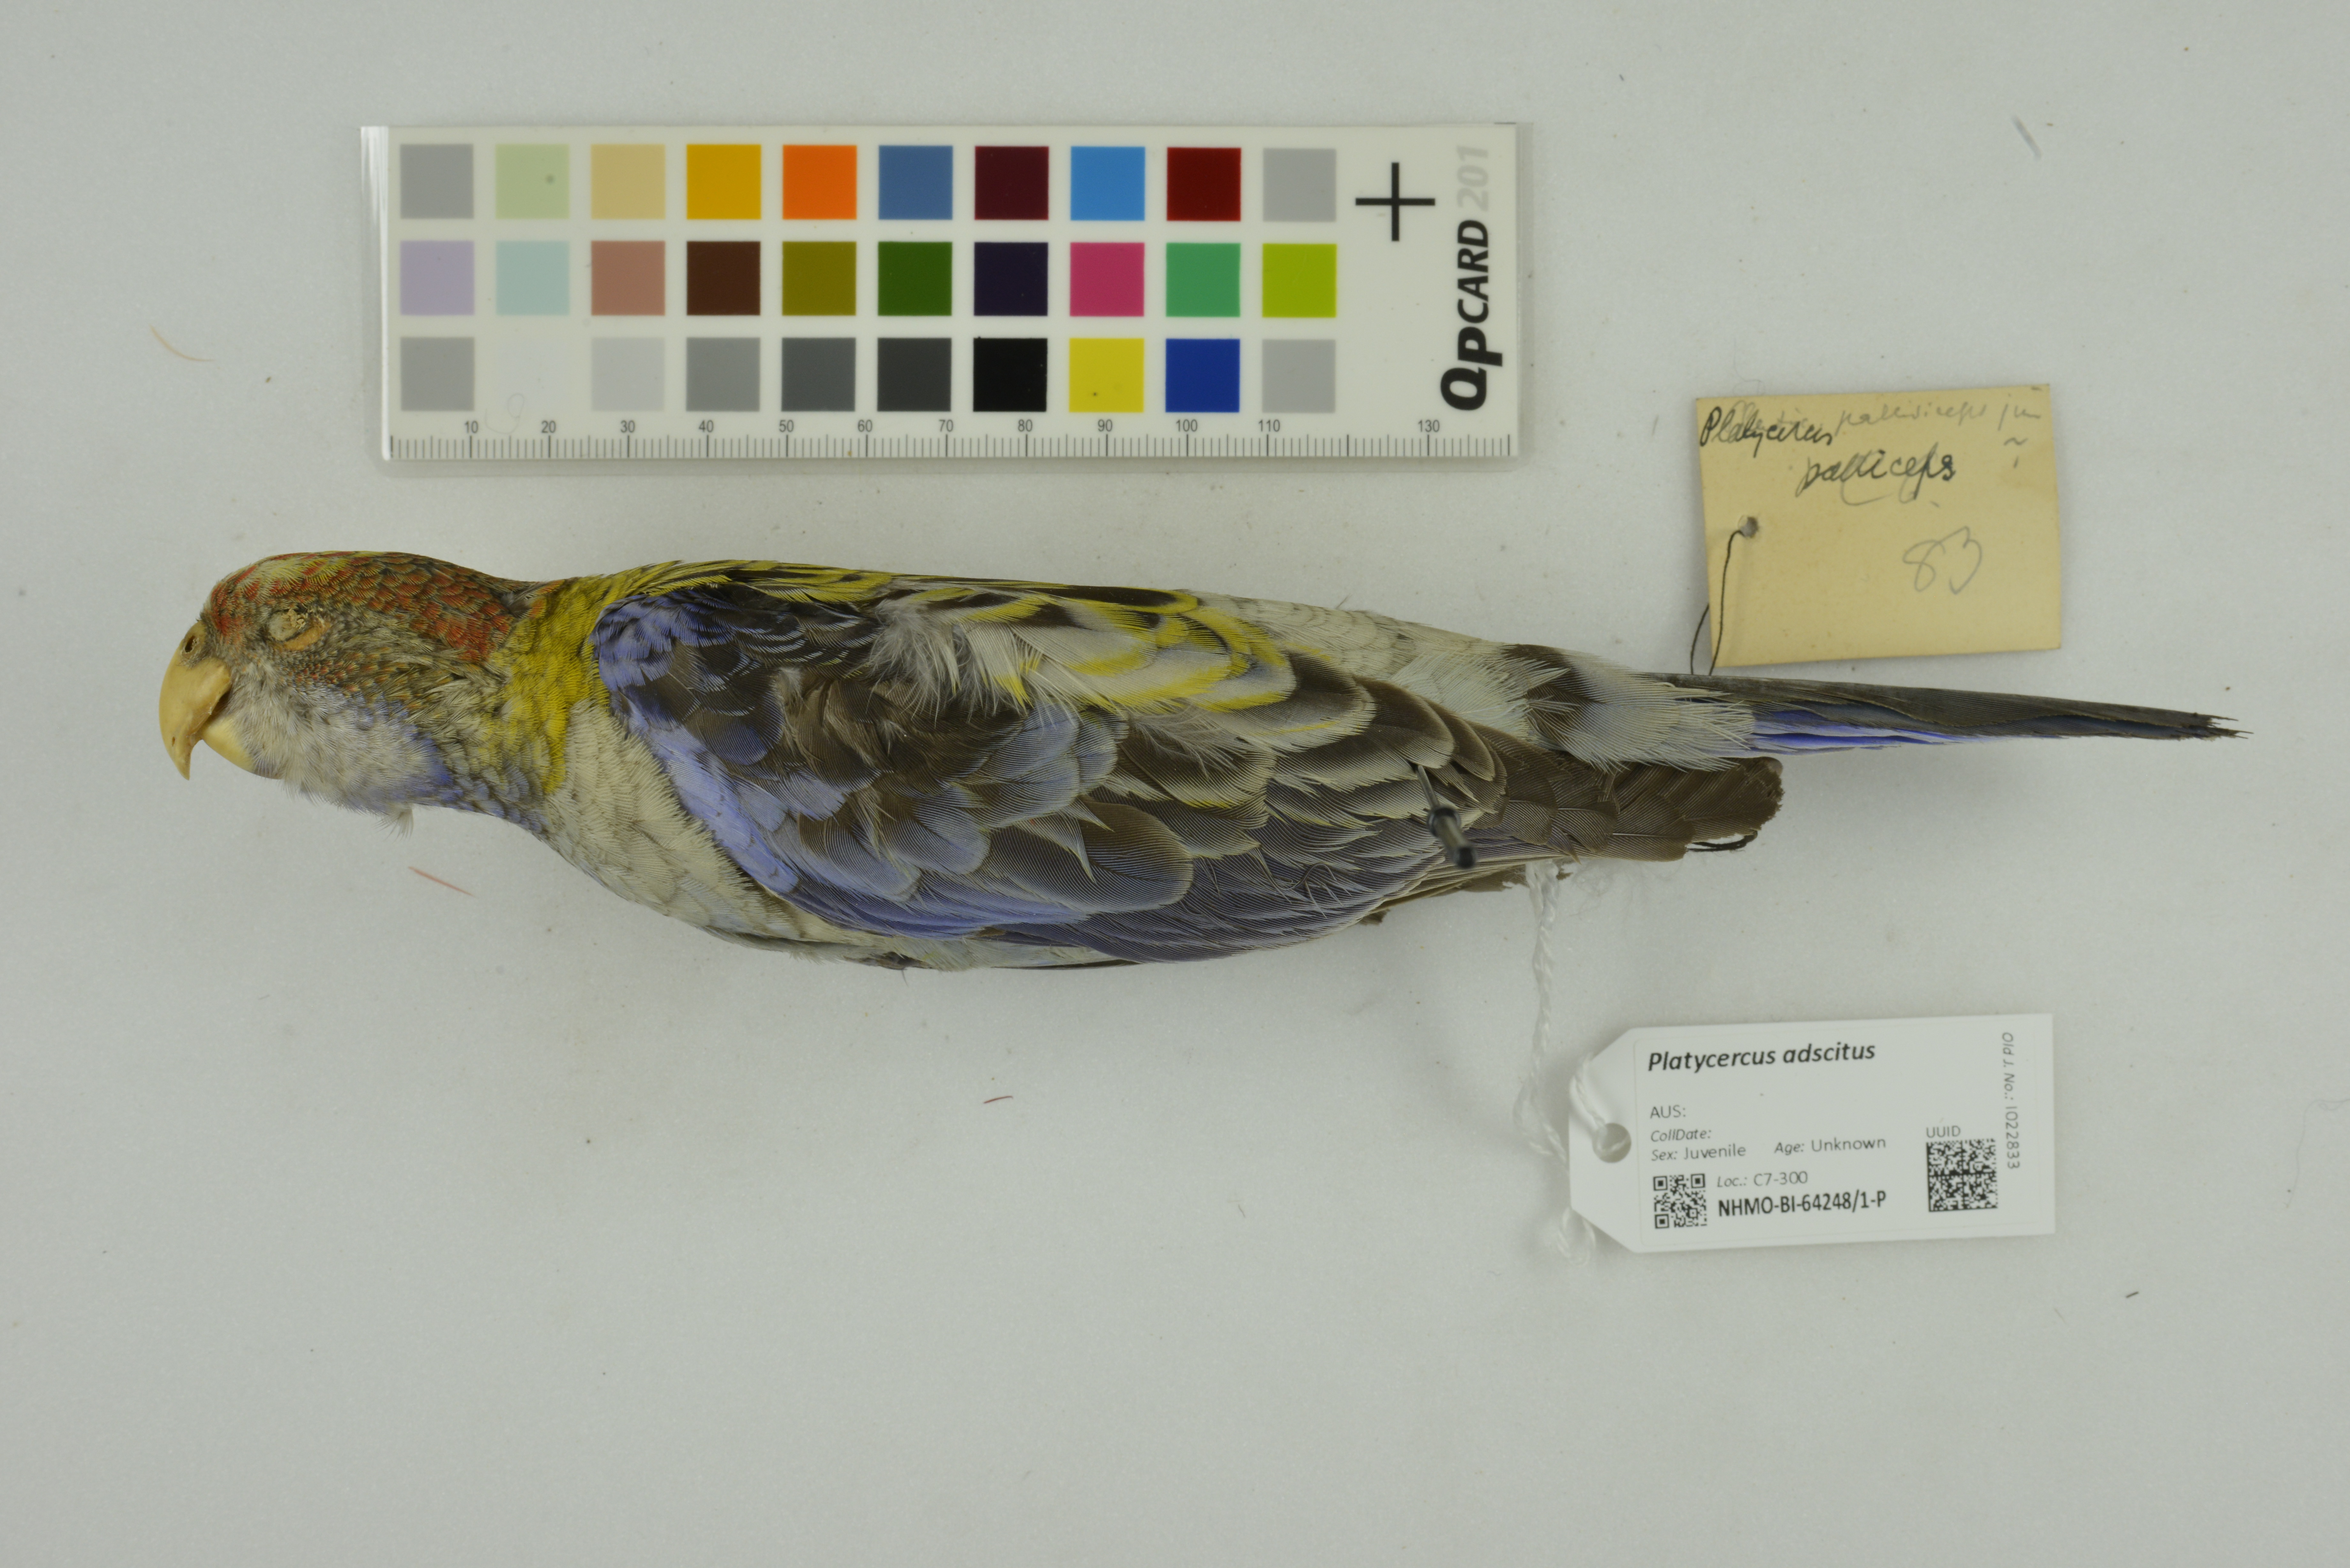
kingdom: Animalia
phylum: Chordata
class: Aves
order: Psittaciformes
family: Psittacidae
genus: Platycercus
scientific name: Platycercus adscitus
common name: Pale-headed rosella
